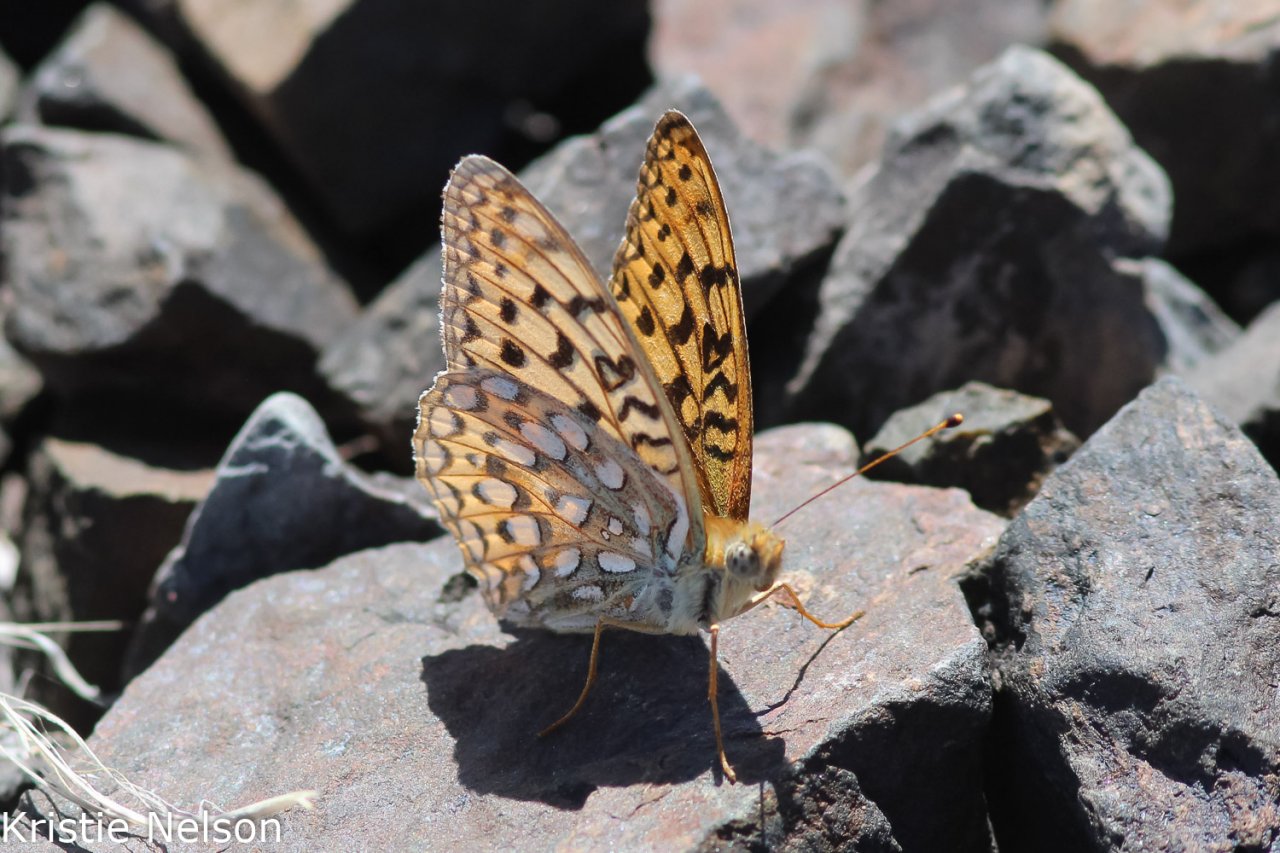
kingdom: Animalia
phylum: Arthropoda
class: Insecta
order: Lepidoptera
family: Nymphalidae
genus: Speyeria
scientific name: Speyeria callippe
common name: Callippe Fritillary
